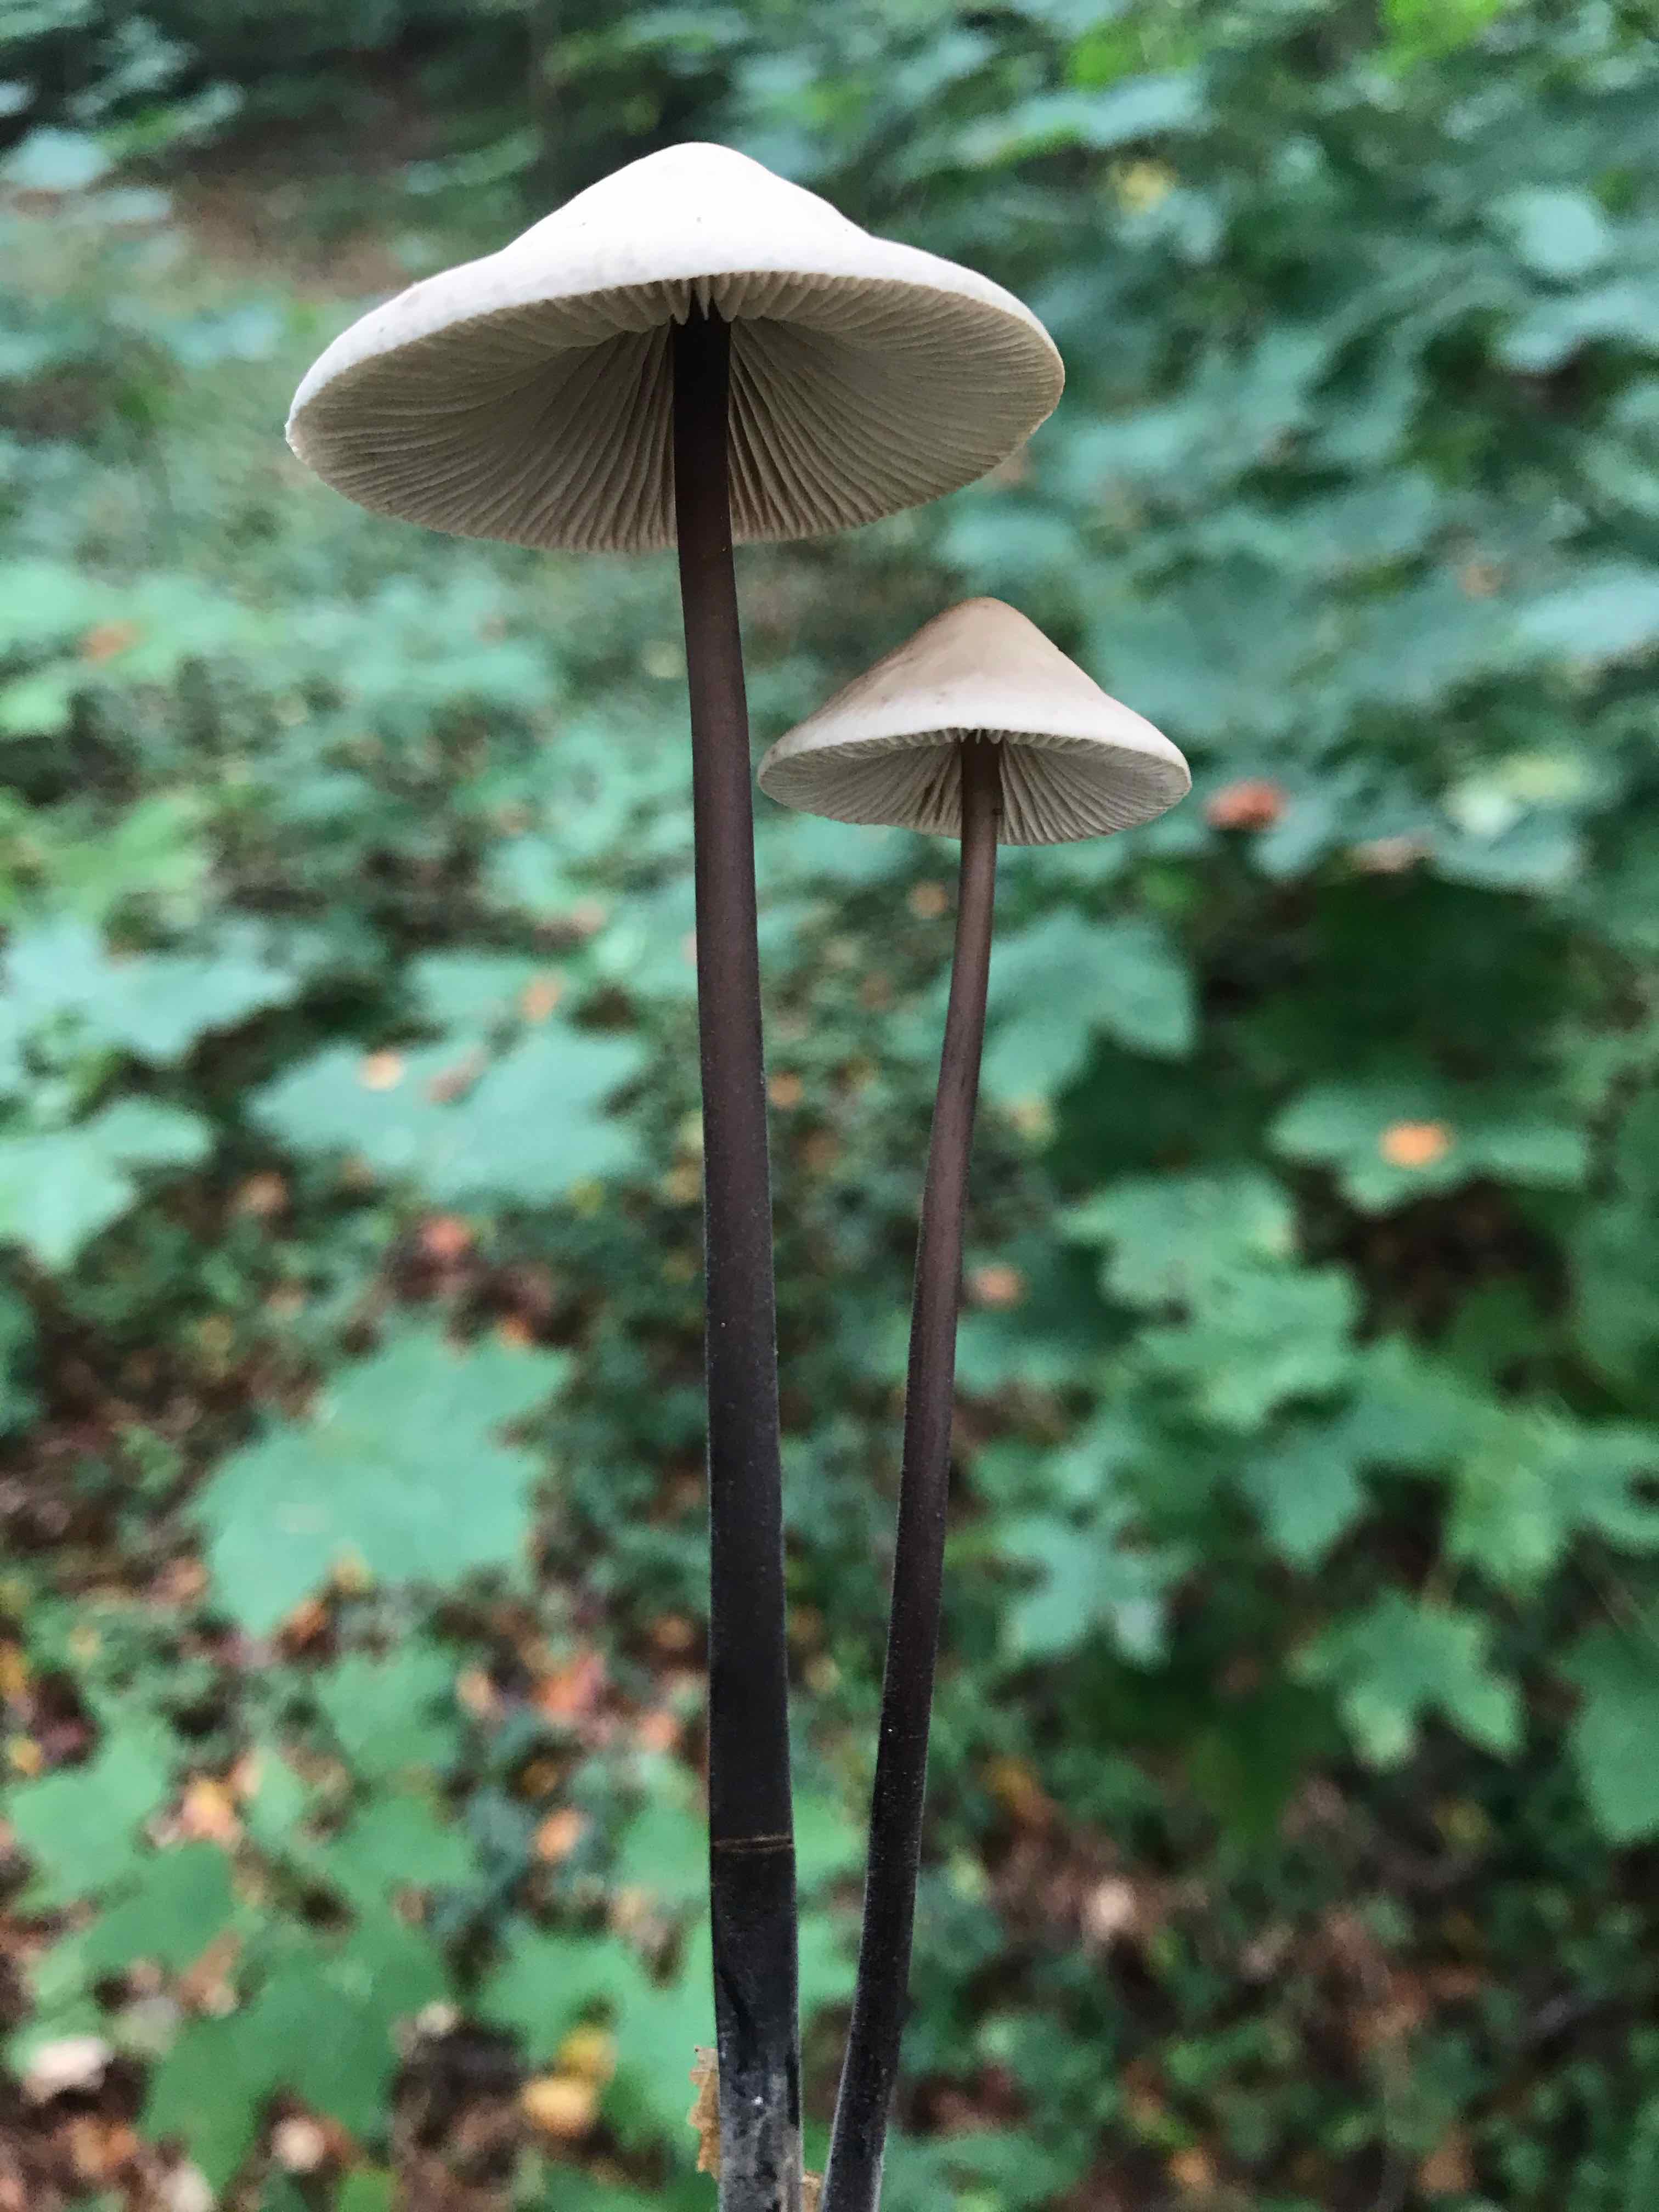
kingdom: Fungi
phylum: Basidiomycota
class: Agaricomycetes
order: Agaricales
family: Omphalotaceae
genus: Mycetinis
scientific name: Mycetinis alliaceus
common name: stor løghat
